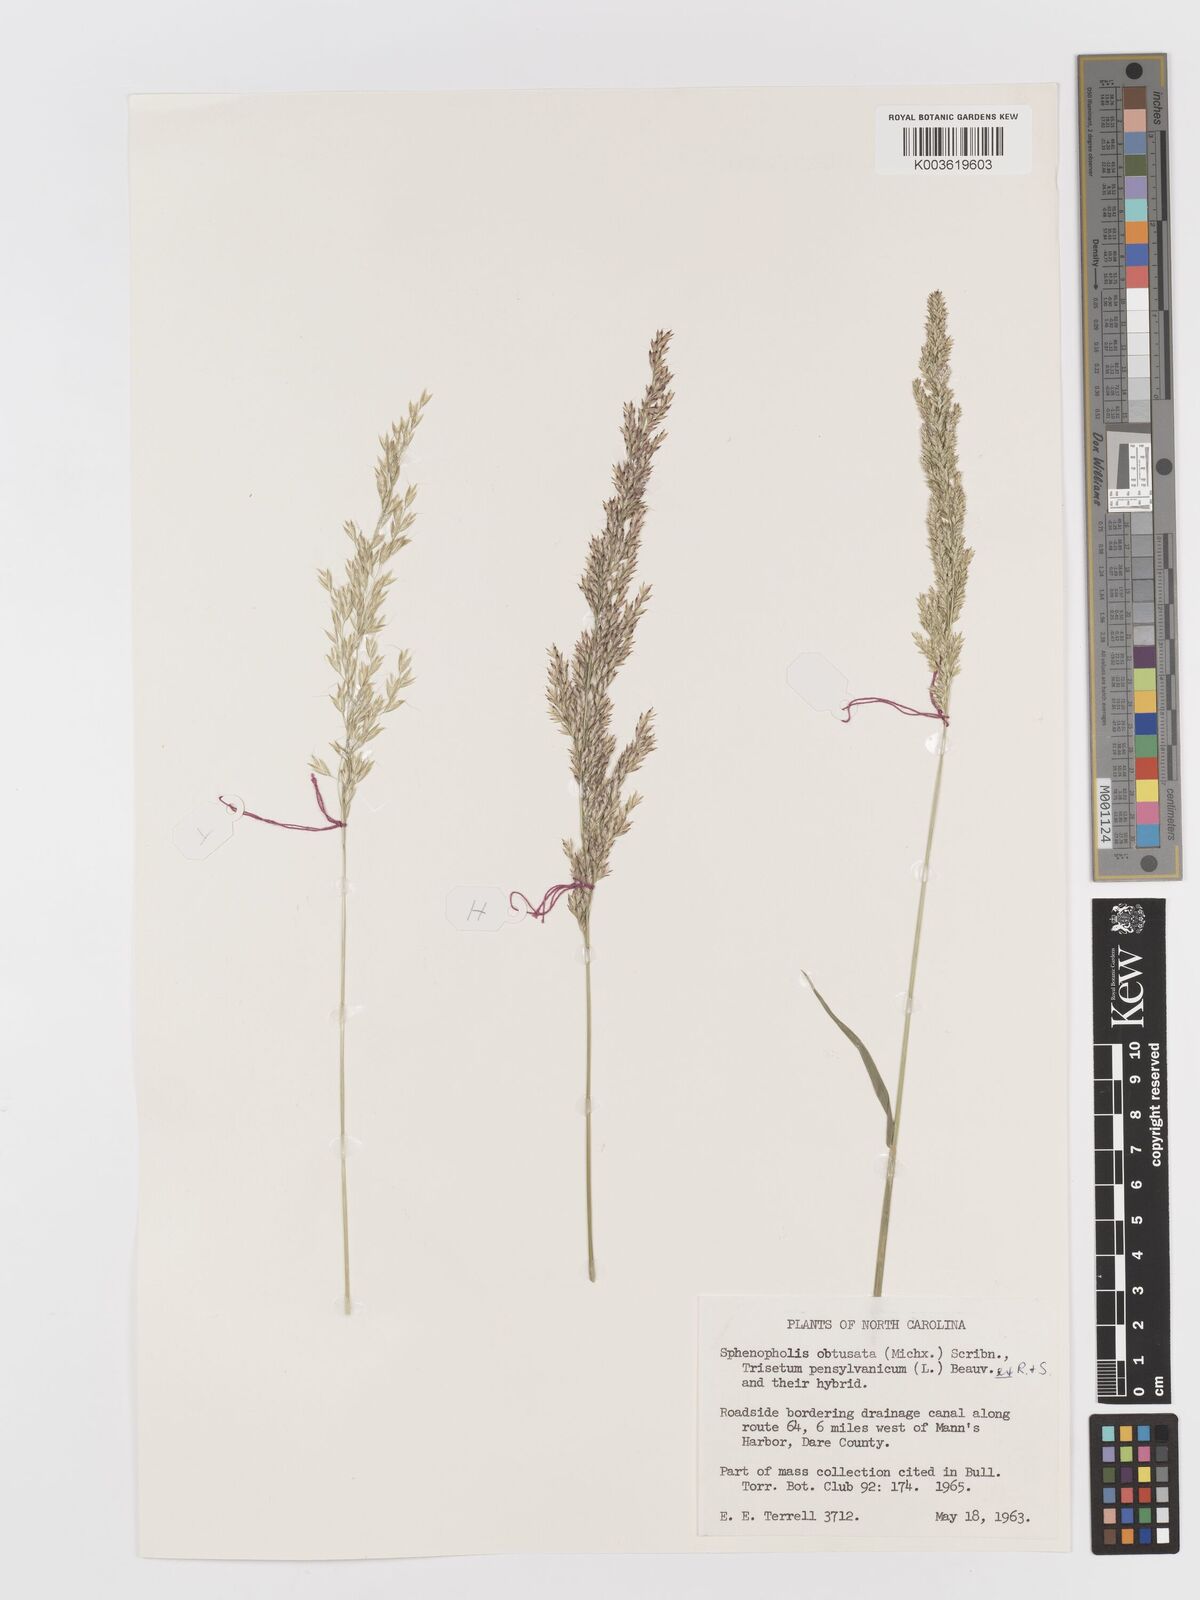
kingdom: Plantae
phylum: Tracheophyta
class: Liliopsida
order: Poales
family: Poaceae
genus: Sphenopholis
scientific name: Sphenopholis obtusata
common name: Prairie grass
